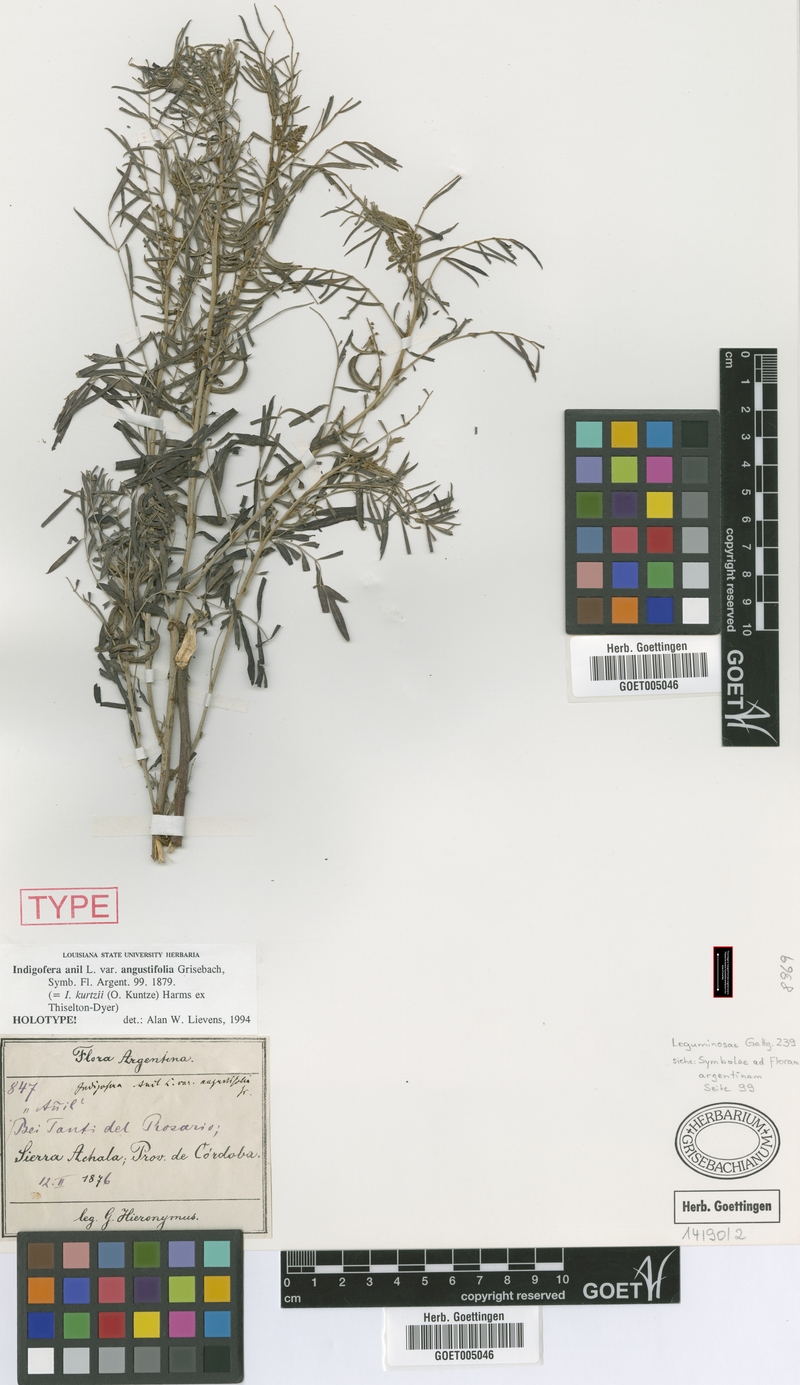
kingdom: Plantae
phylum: Tracheophyta
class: Magnoliopsida
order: Fabales
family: Fabaceae
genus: Indigofera
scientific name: Indigofera kurtzii
